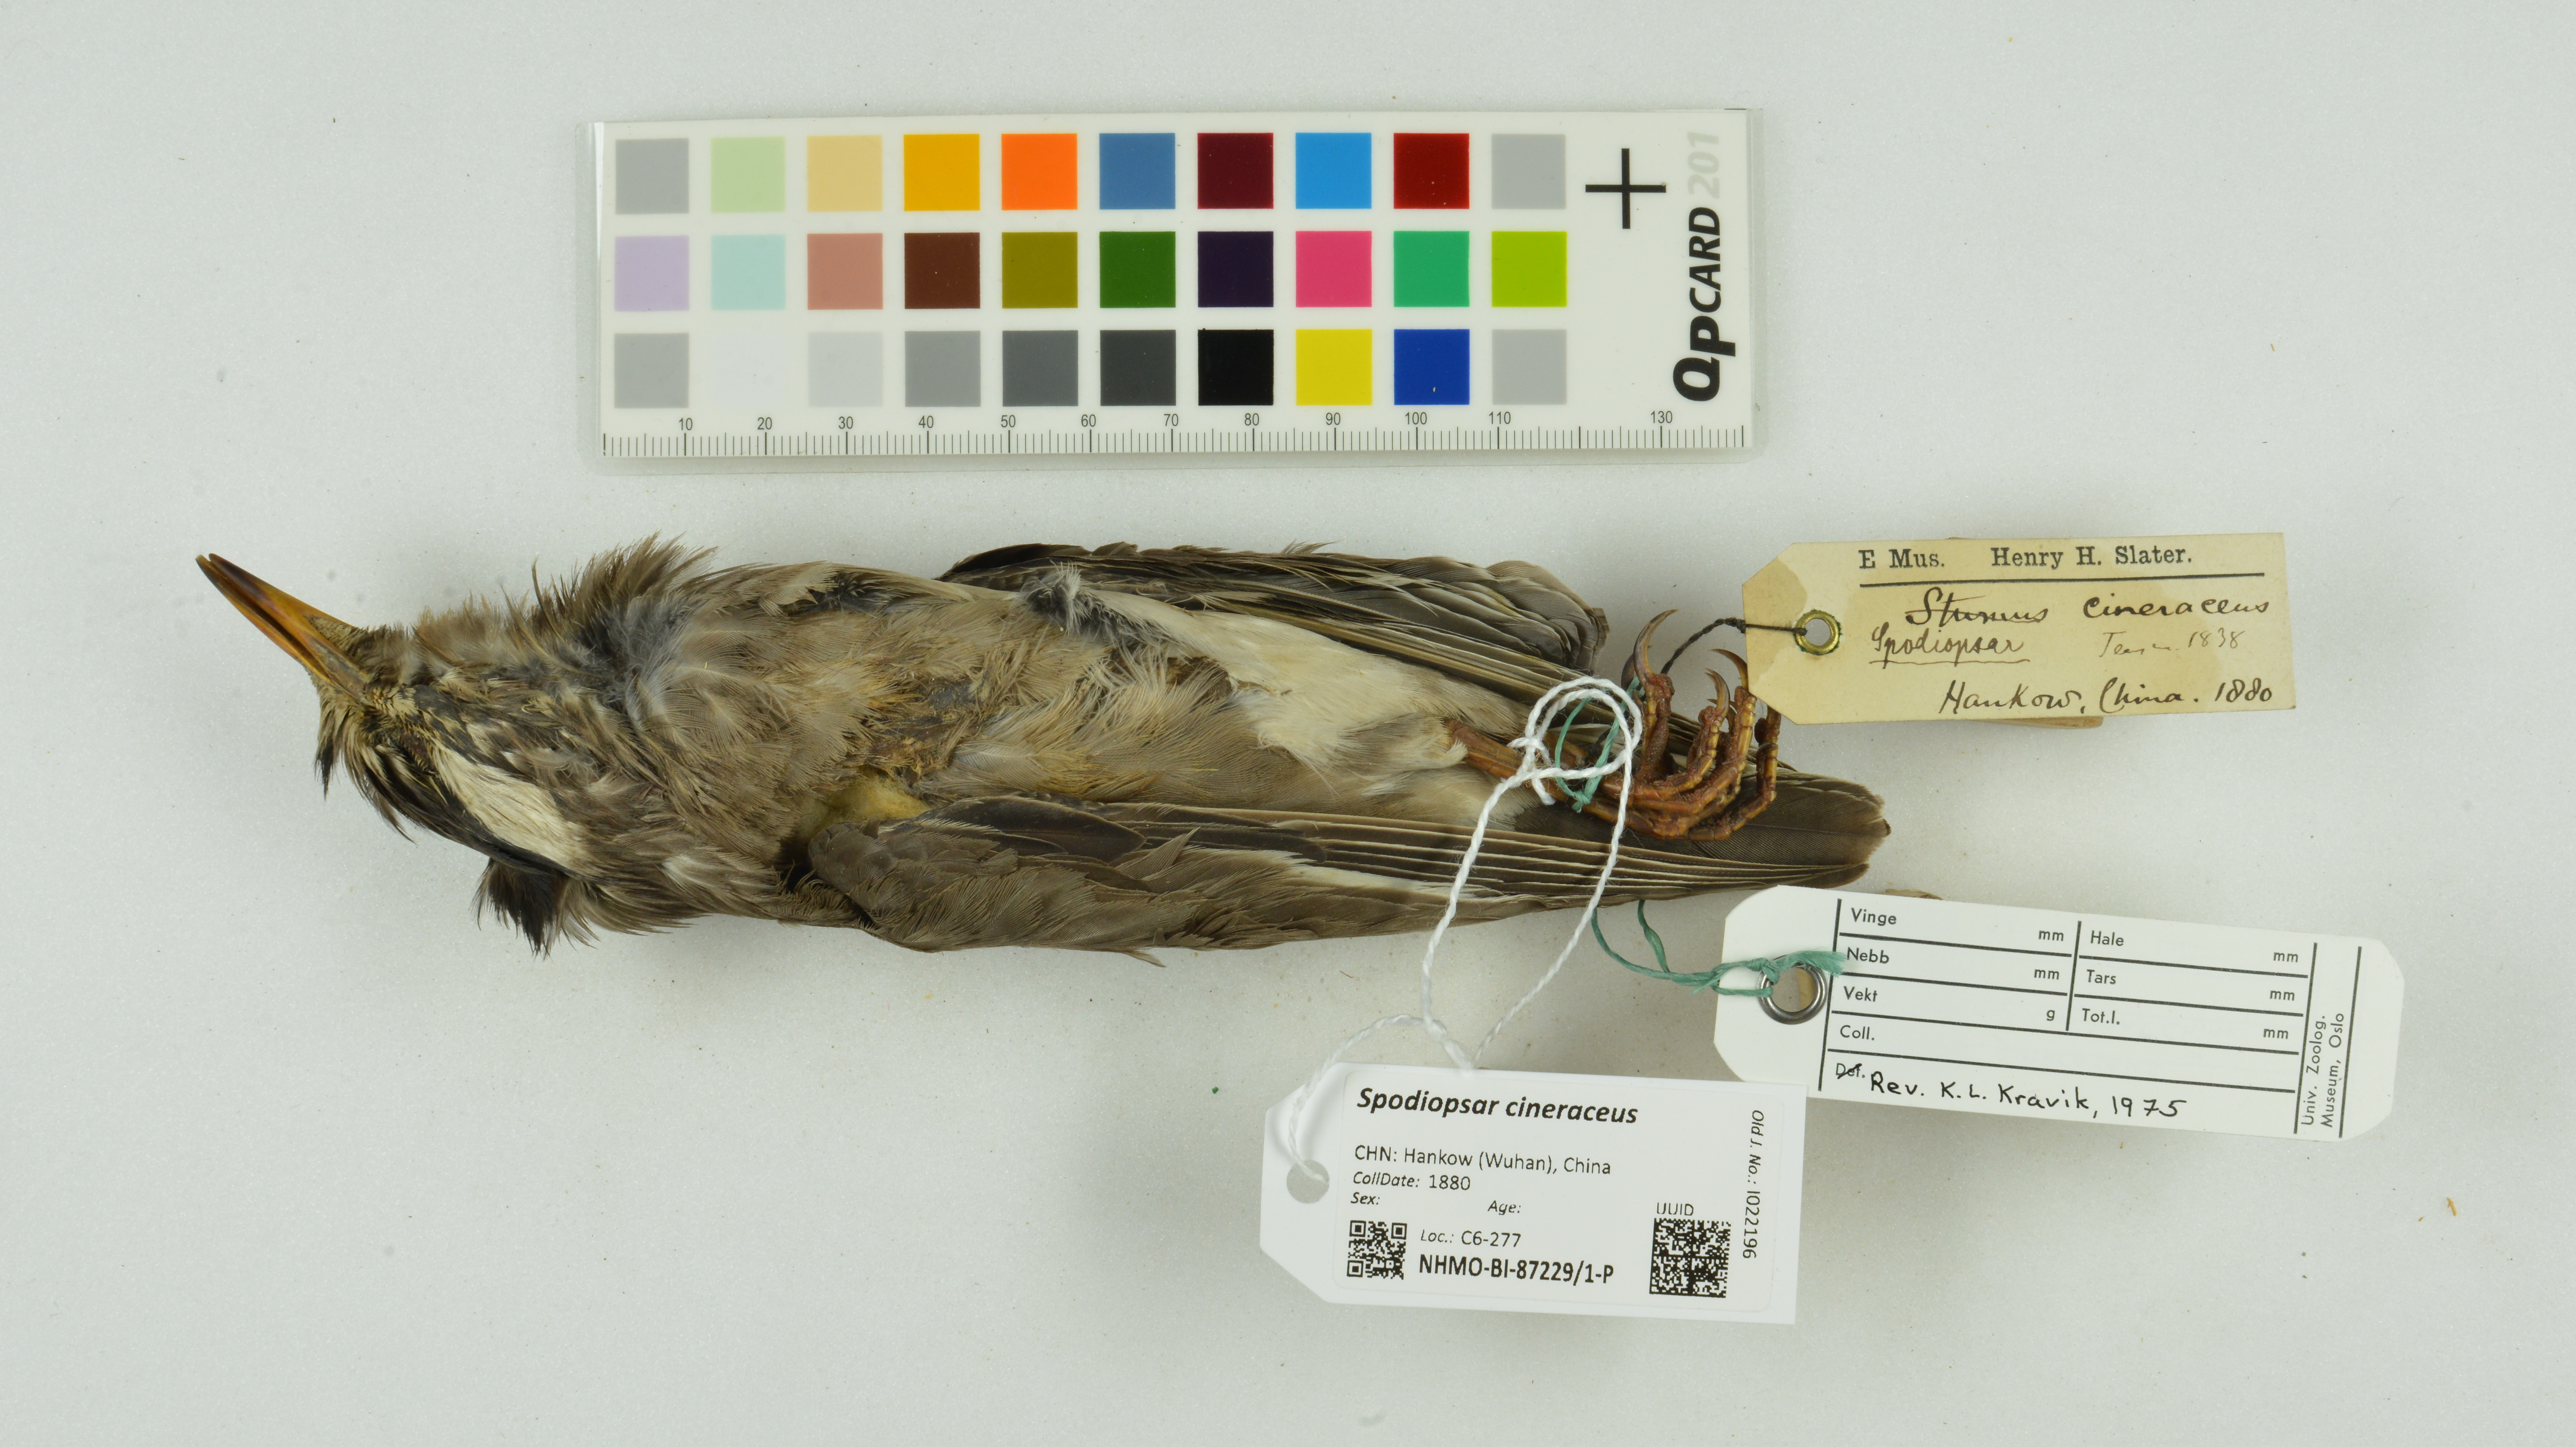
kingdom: Animalia
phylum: Chordata
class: Aves
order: Passeriformes
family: Sturnidae
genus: Spodiopsar
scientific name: Spodiopsar cineraceus
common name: White-cheeked starling
